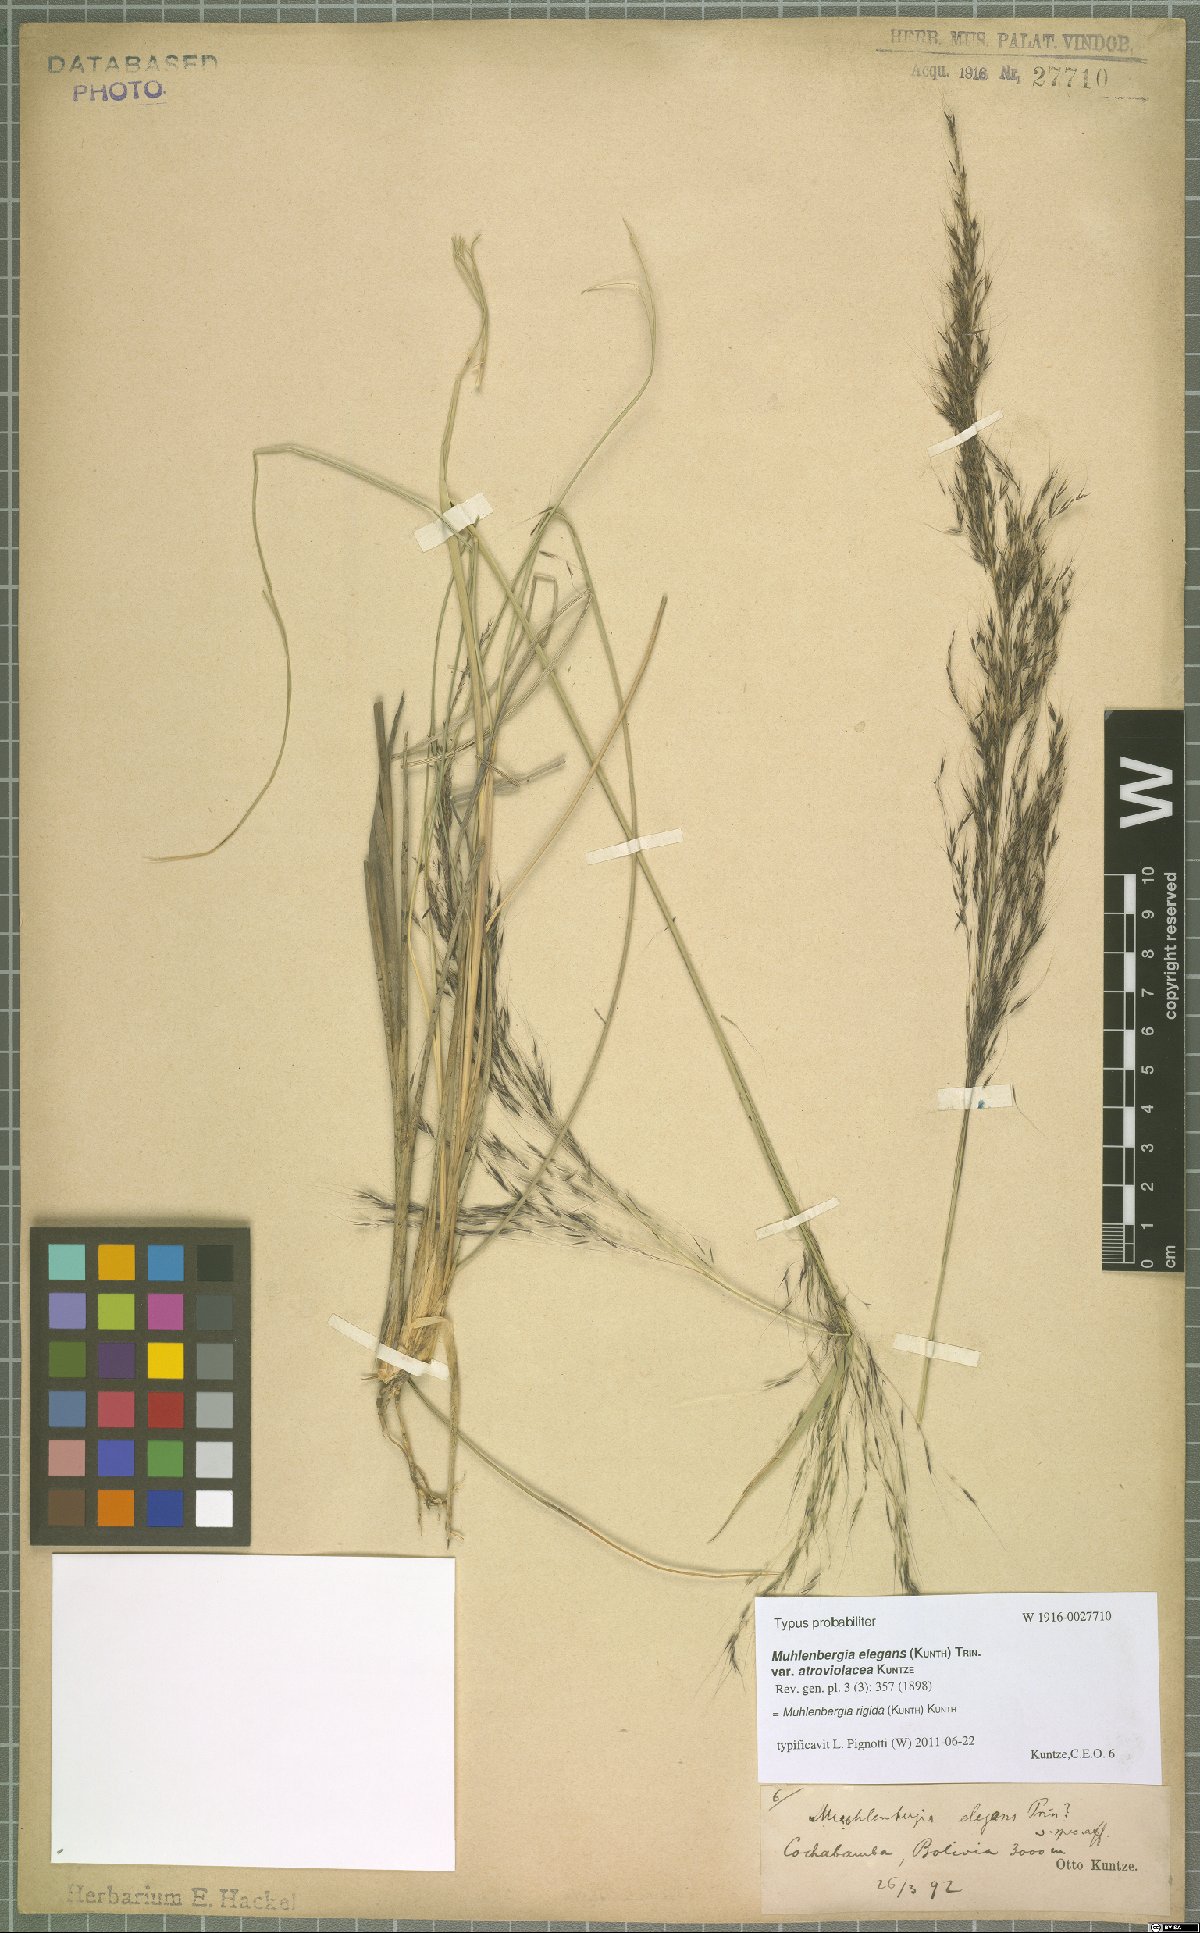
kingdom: Plantae
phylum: Tracheophyta
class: Liliopsida
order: Poales
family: Poaceae
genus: Muhlenbergia
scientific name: Muhlenbergia rigida
